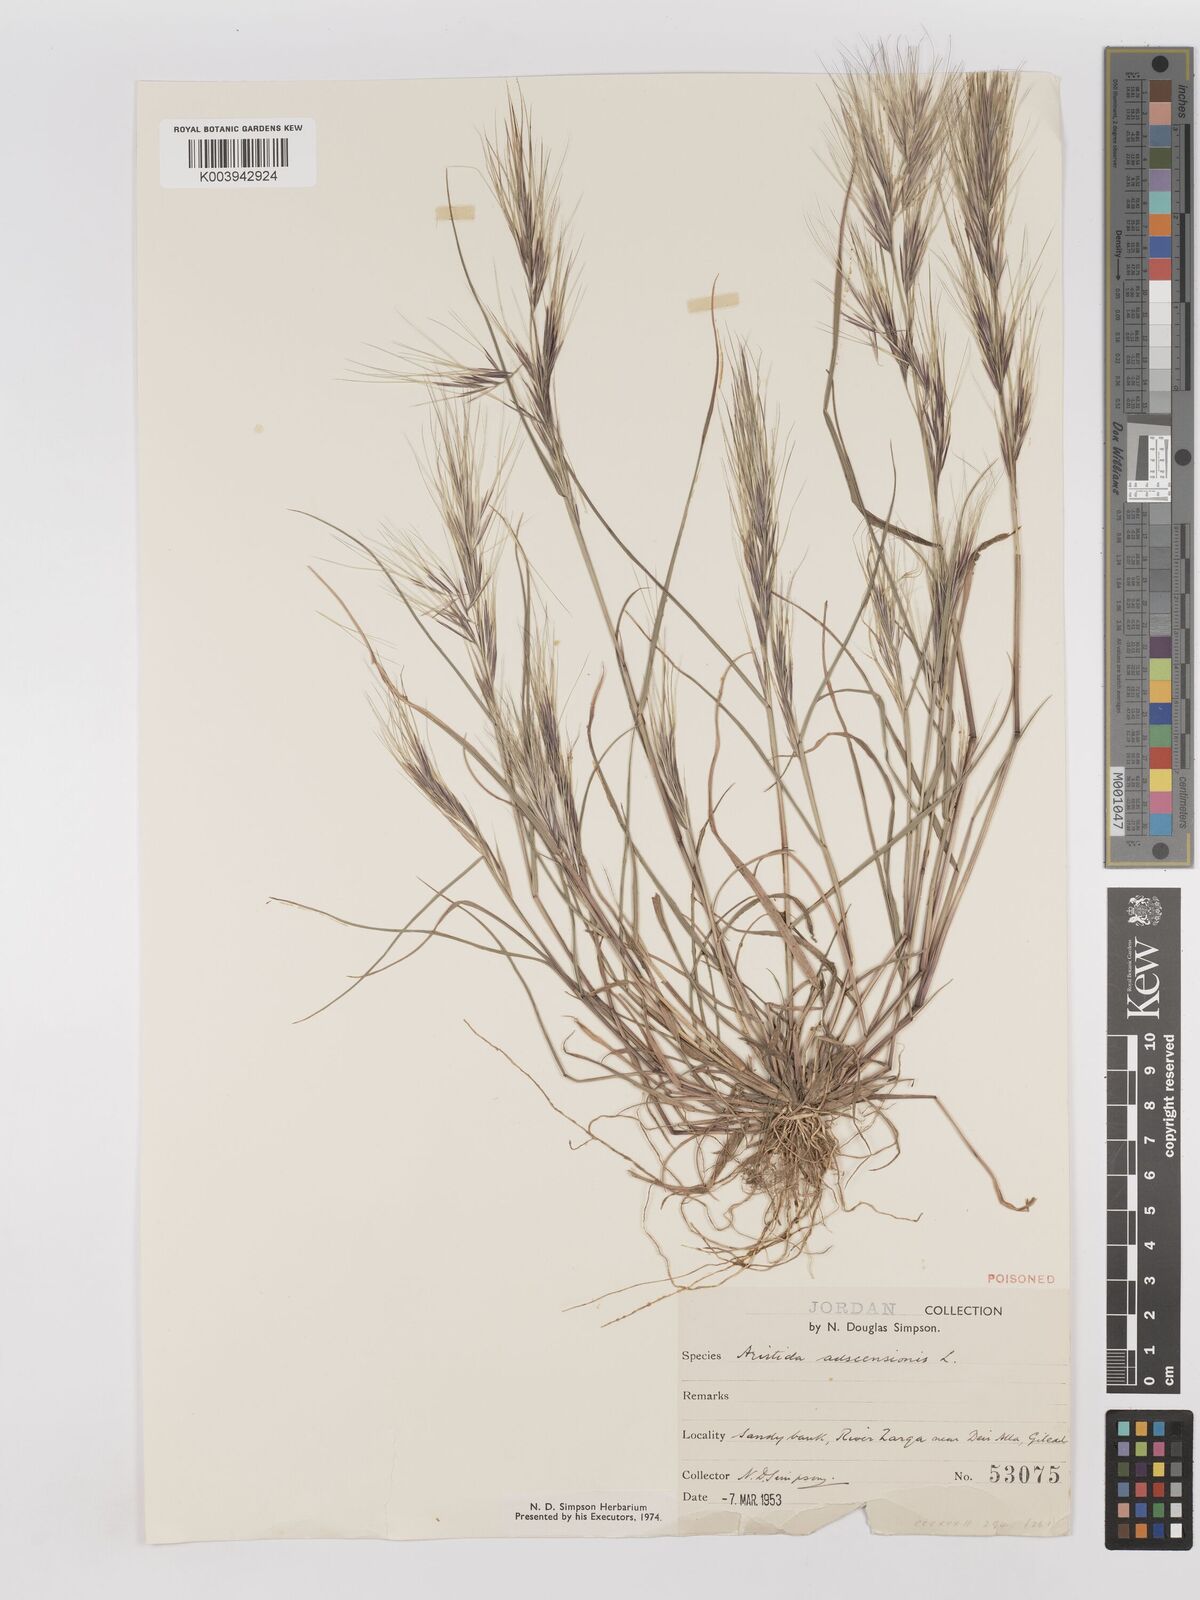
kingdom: Plantae
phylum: Tracheophyta
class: Liliopsida
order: Poales
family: Poaceae
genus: Aristida
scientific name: Aristida adscensionis
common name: Sixweeks threeawn
